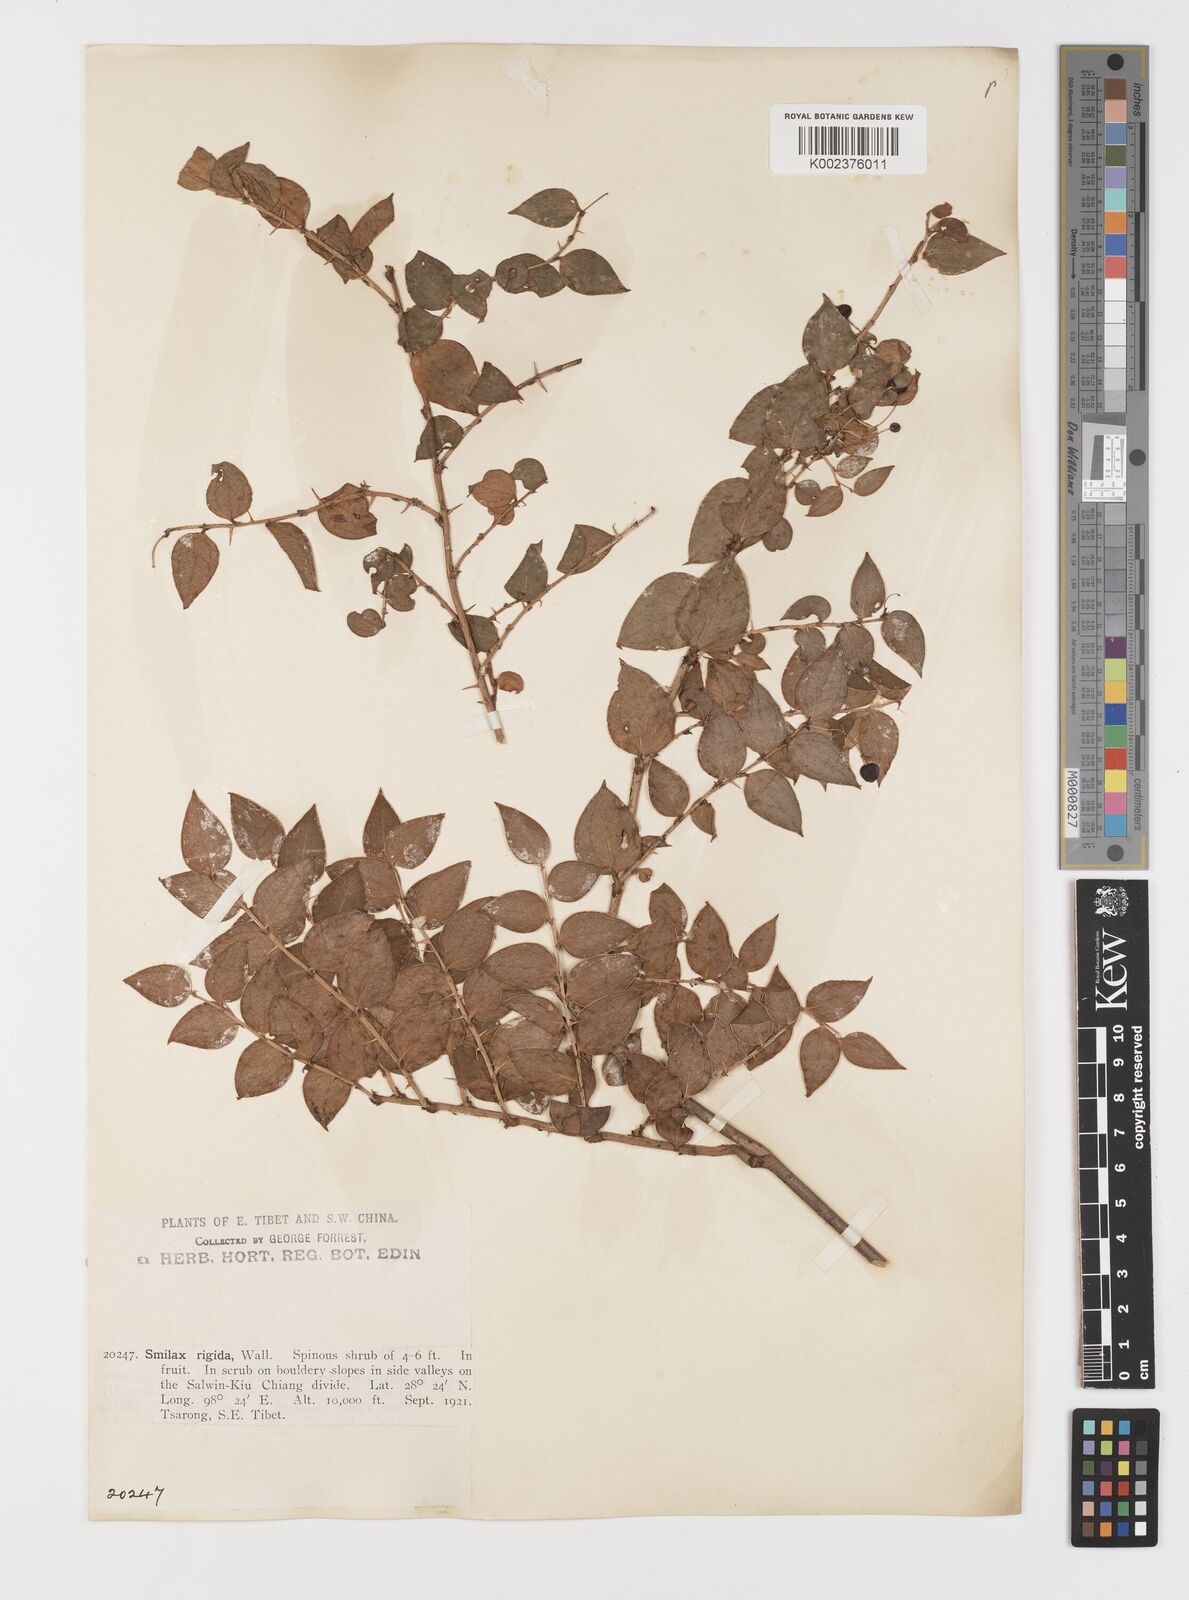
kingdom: Plantae
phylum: Tracheophyta
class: Liliopsida
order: Liliales
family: Smilacaceae
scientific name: Smilacaceae
